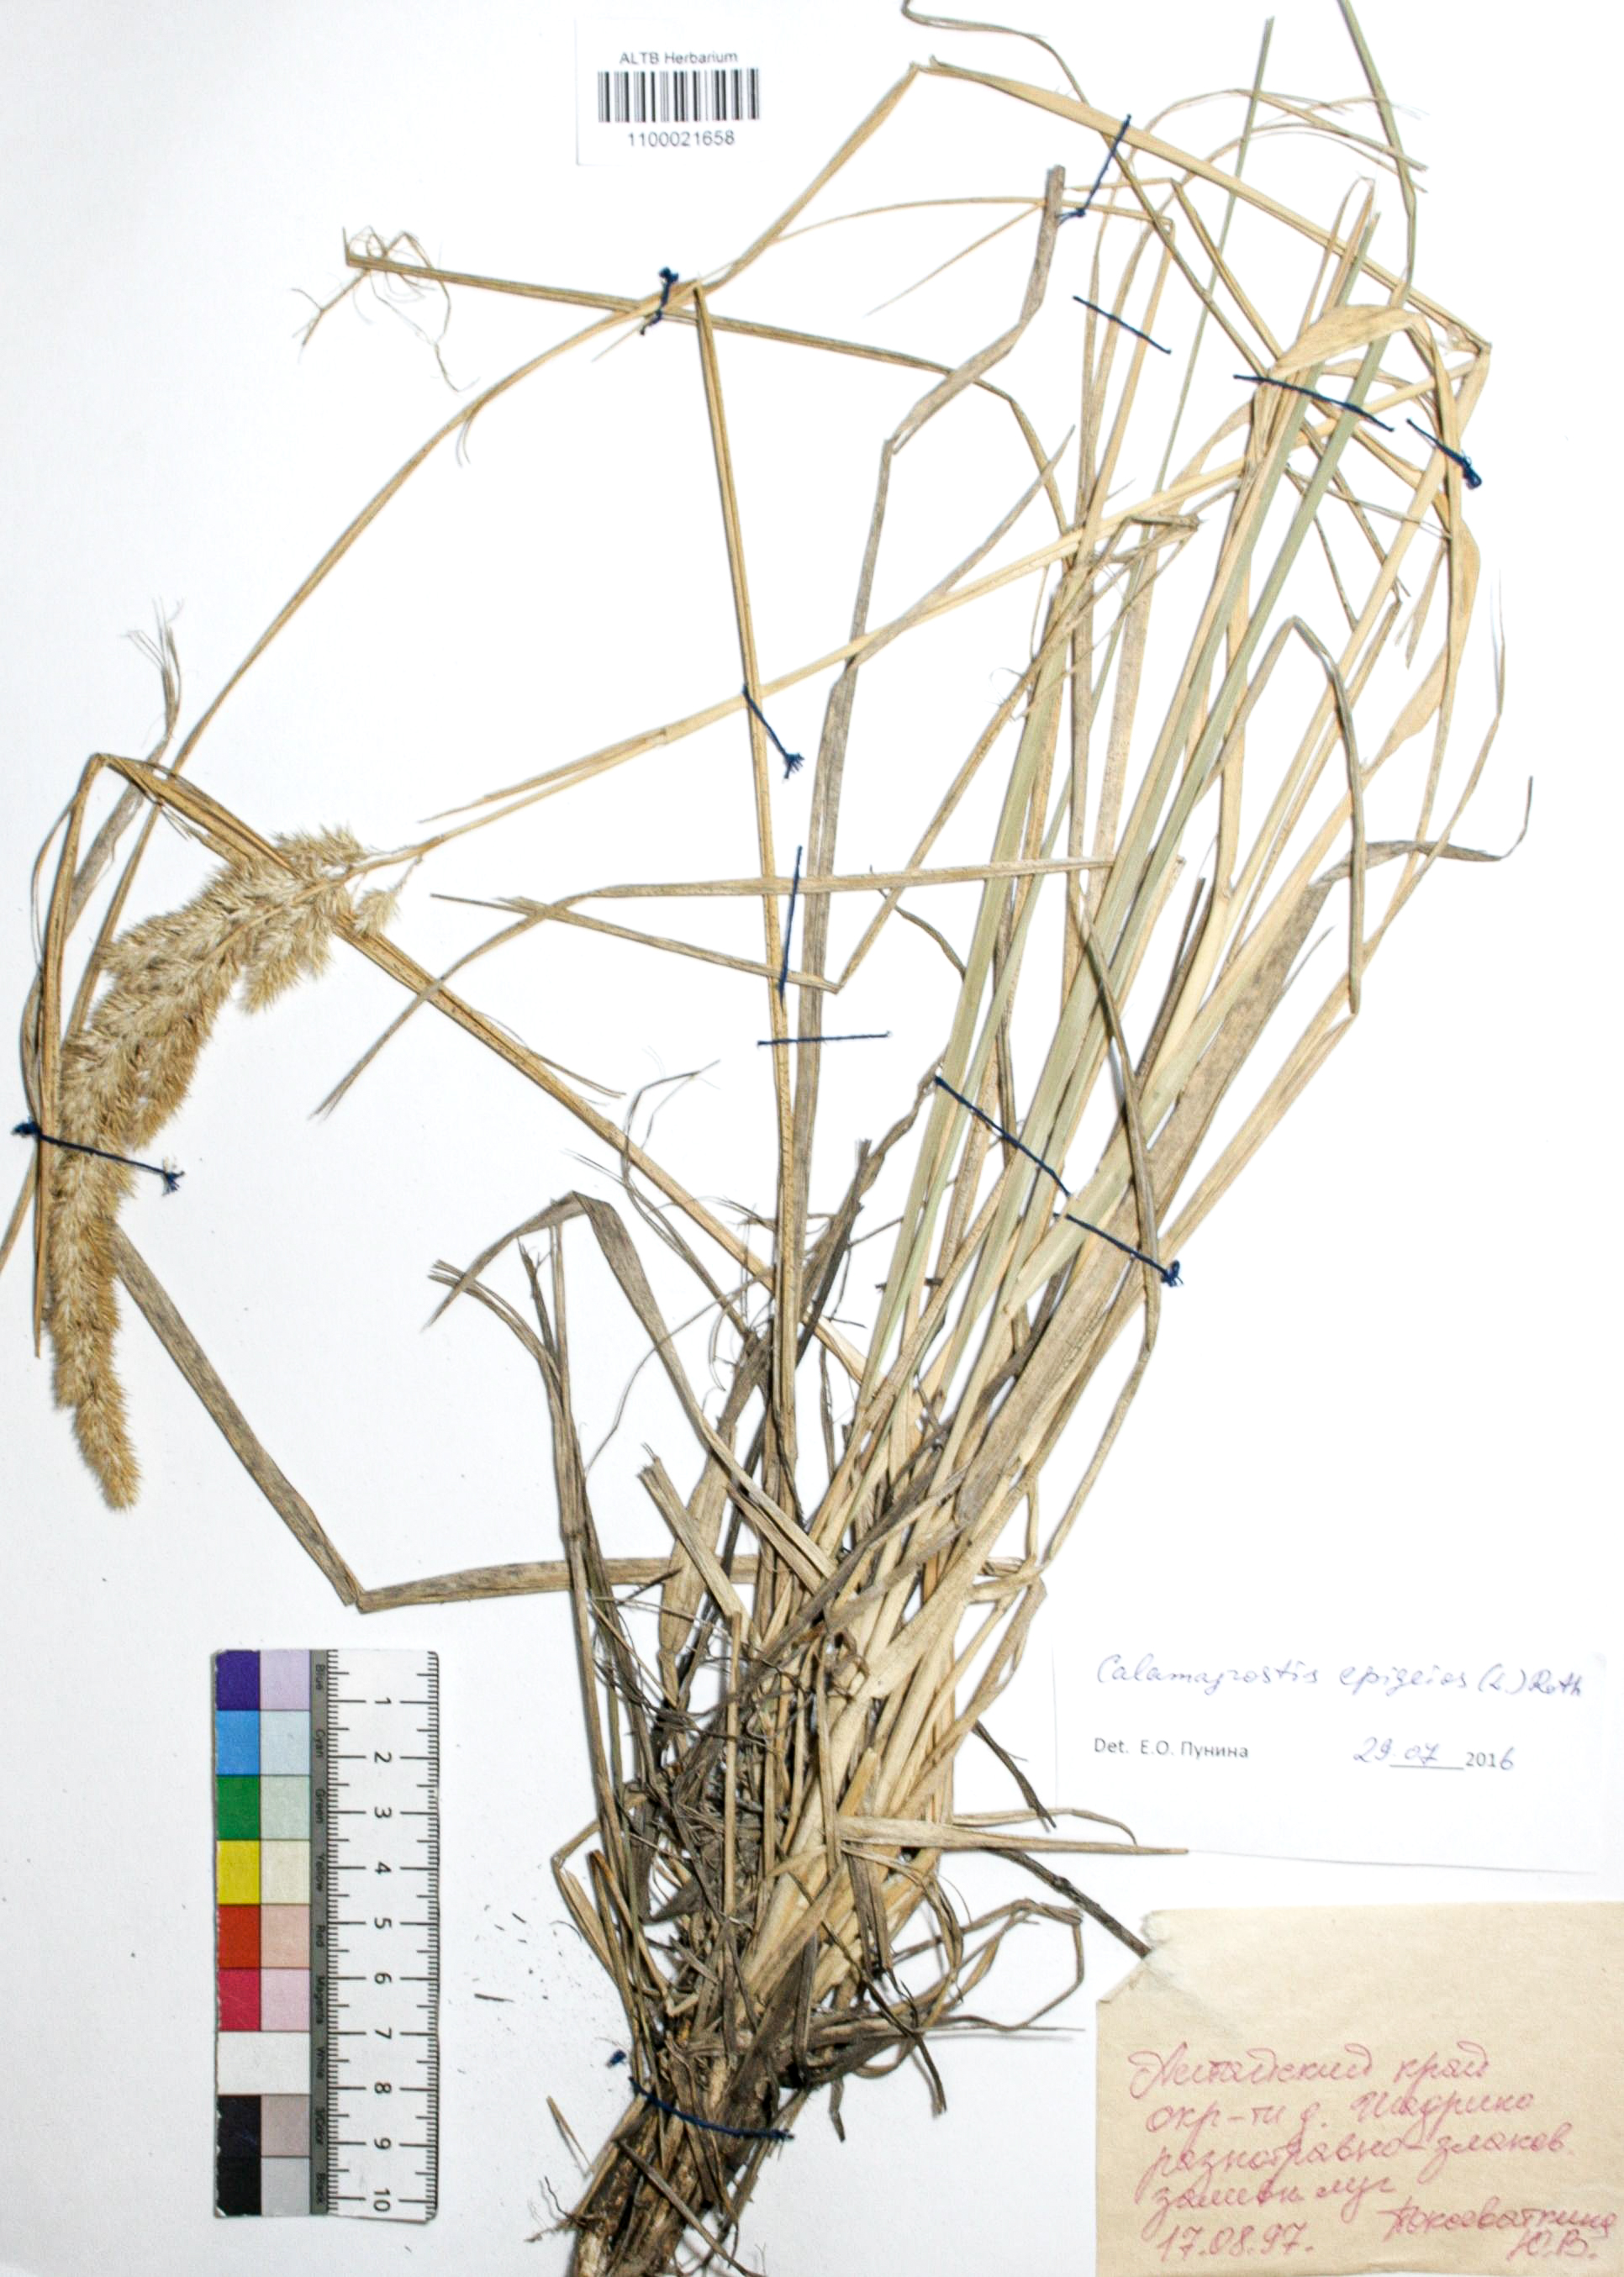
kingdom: Plantae
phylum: Tracheophyta
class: Liliopsida
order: Poales
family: Poaceae
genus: Calamagrostis
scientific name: Calamagrostis epigejos
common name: Wood small-reed
